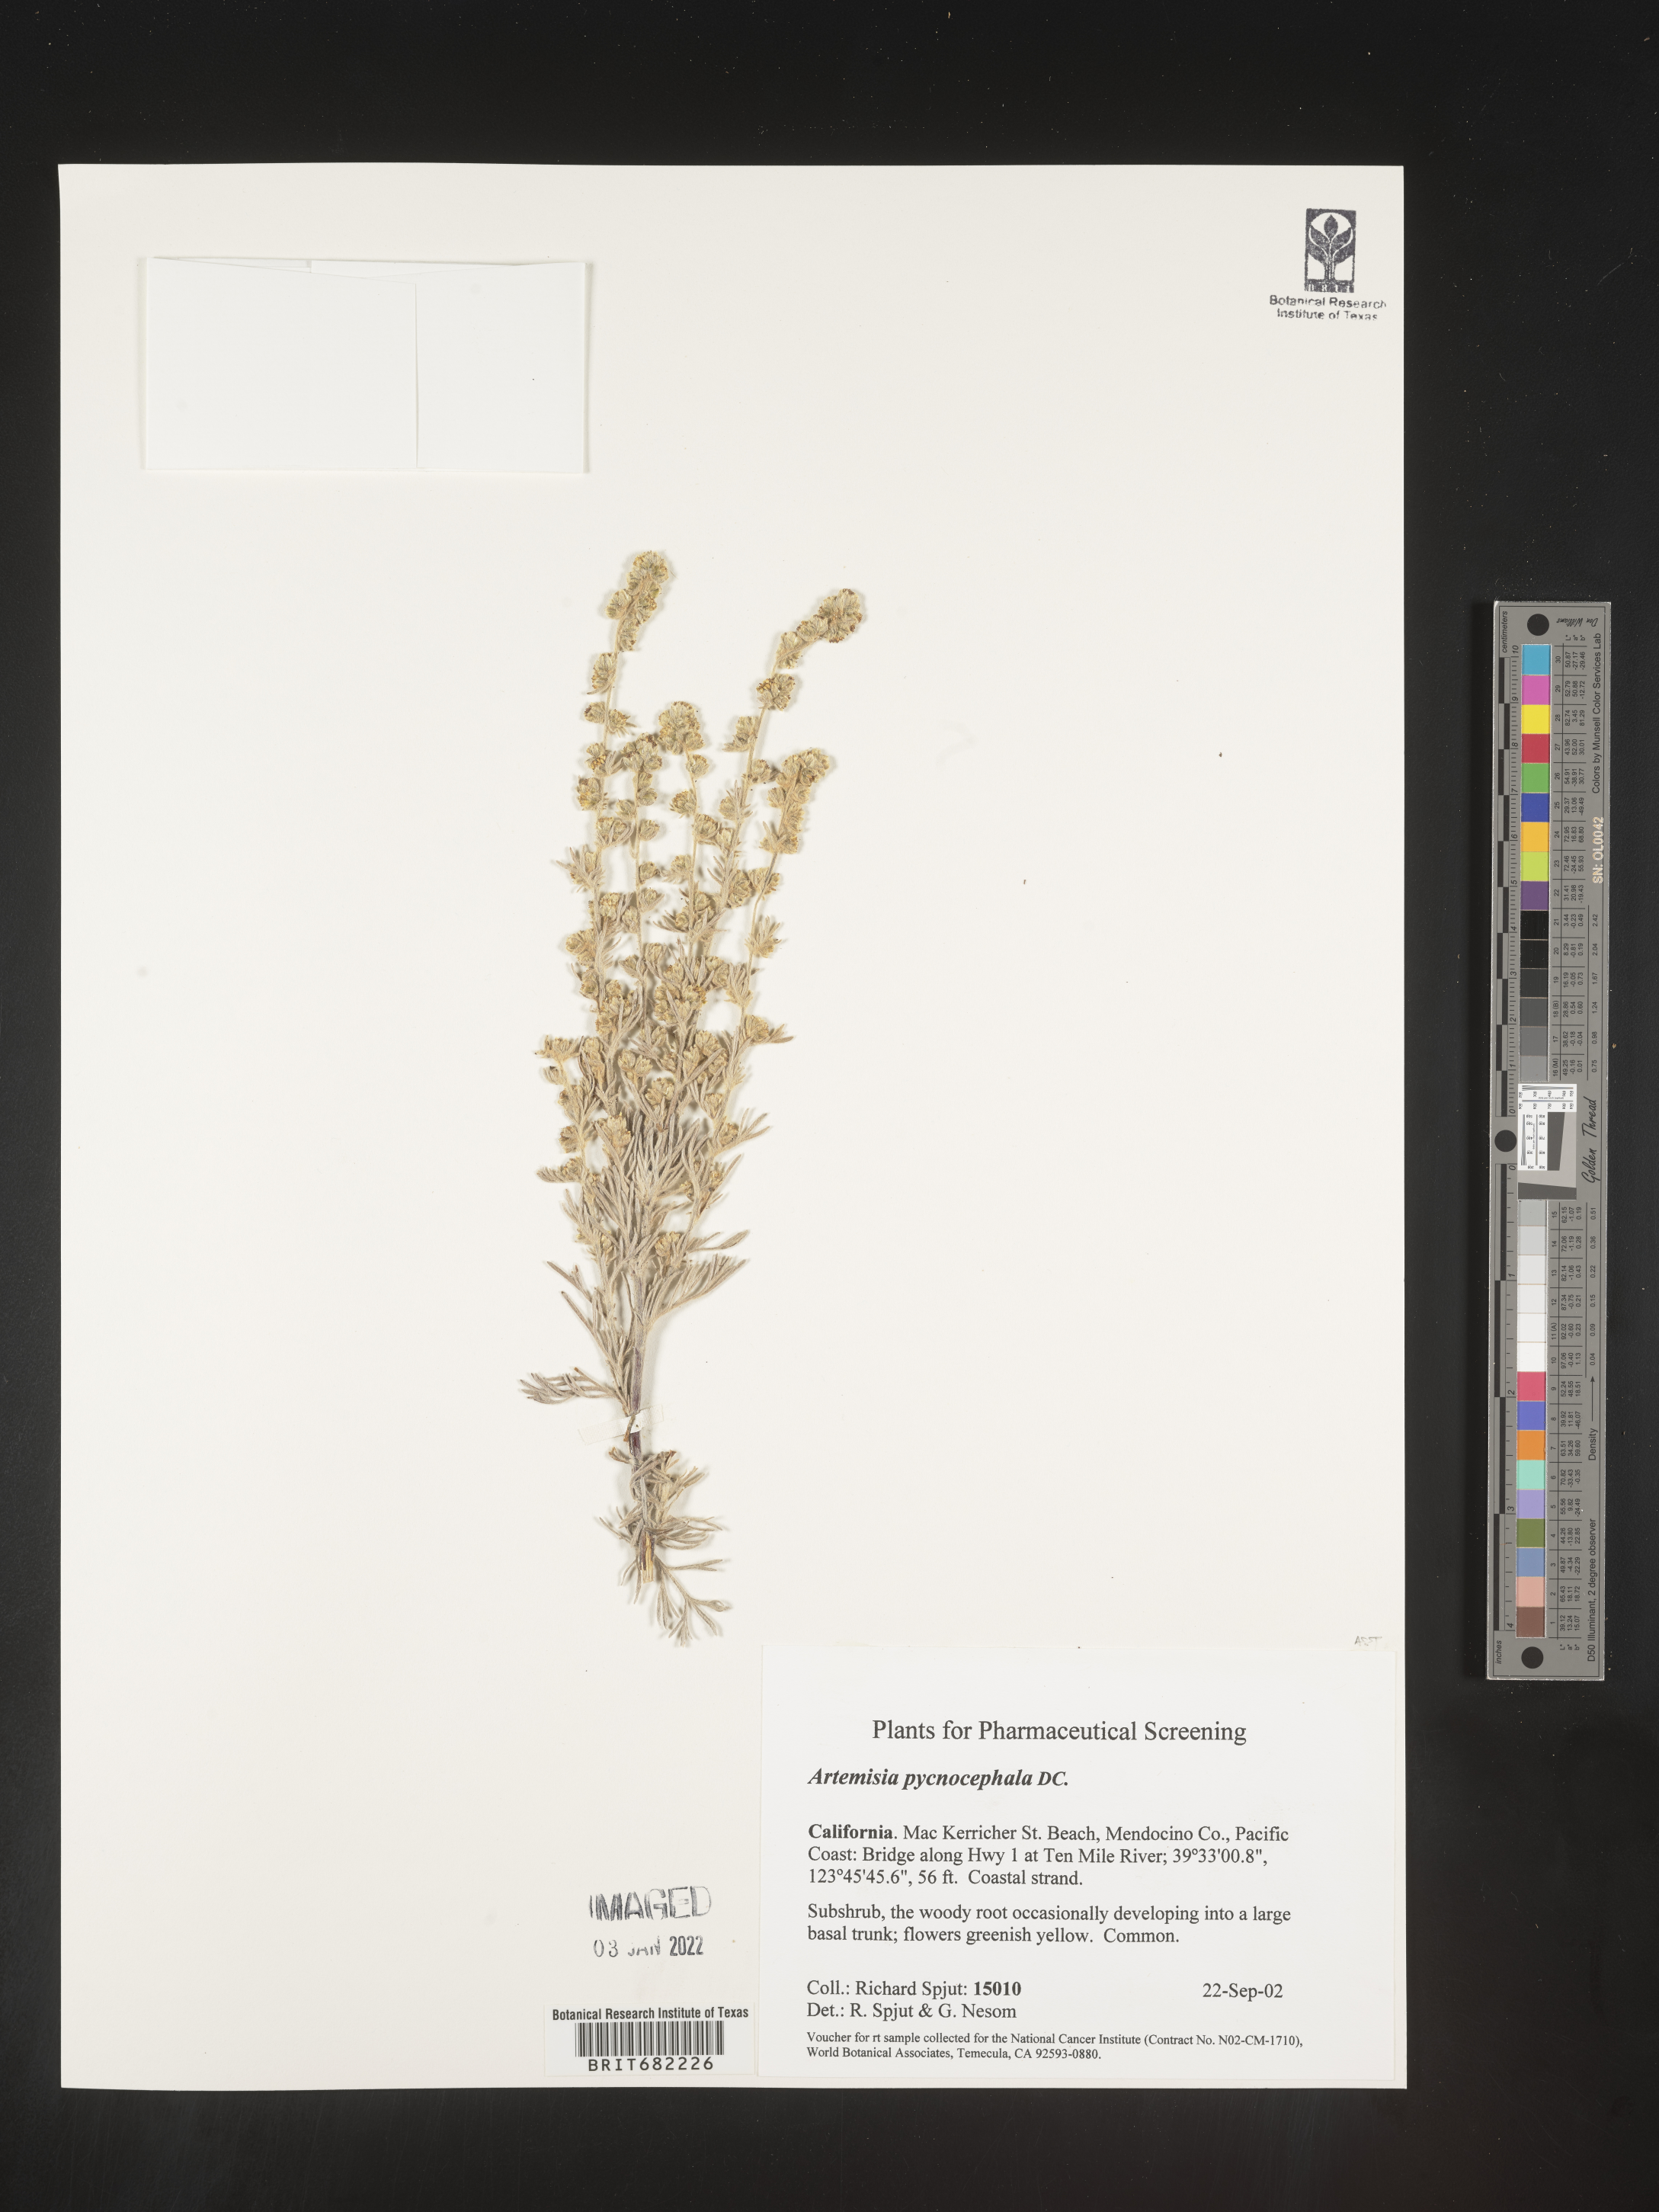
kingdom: Plantae
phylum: Tracheophyta
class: Magnoliopsida
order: Asterales
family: Asteraceae
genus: Artemisia
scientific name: Artemisia pycnocephala
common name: Coastal sagewort
